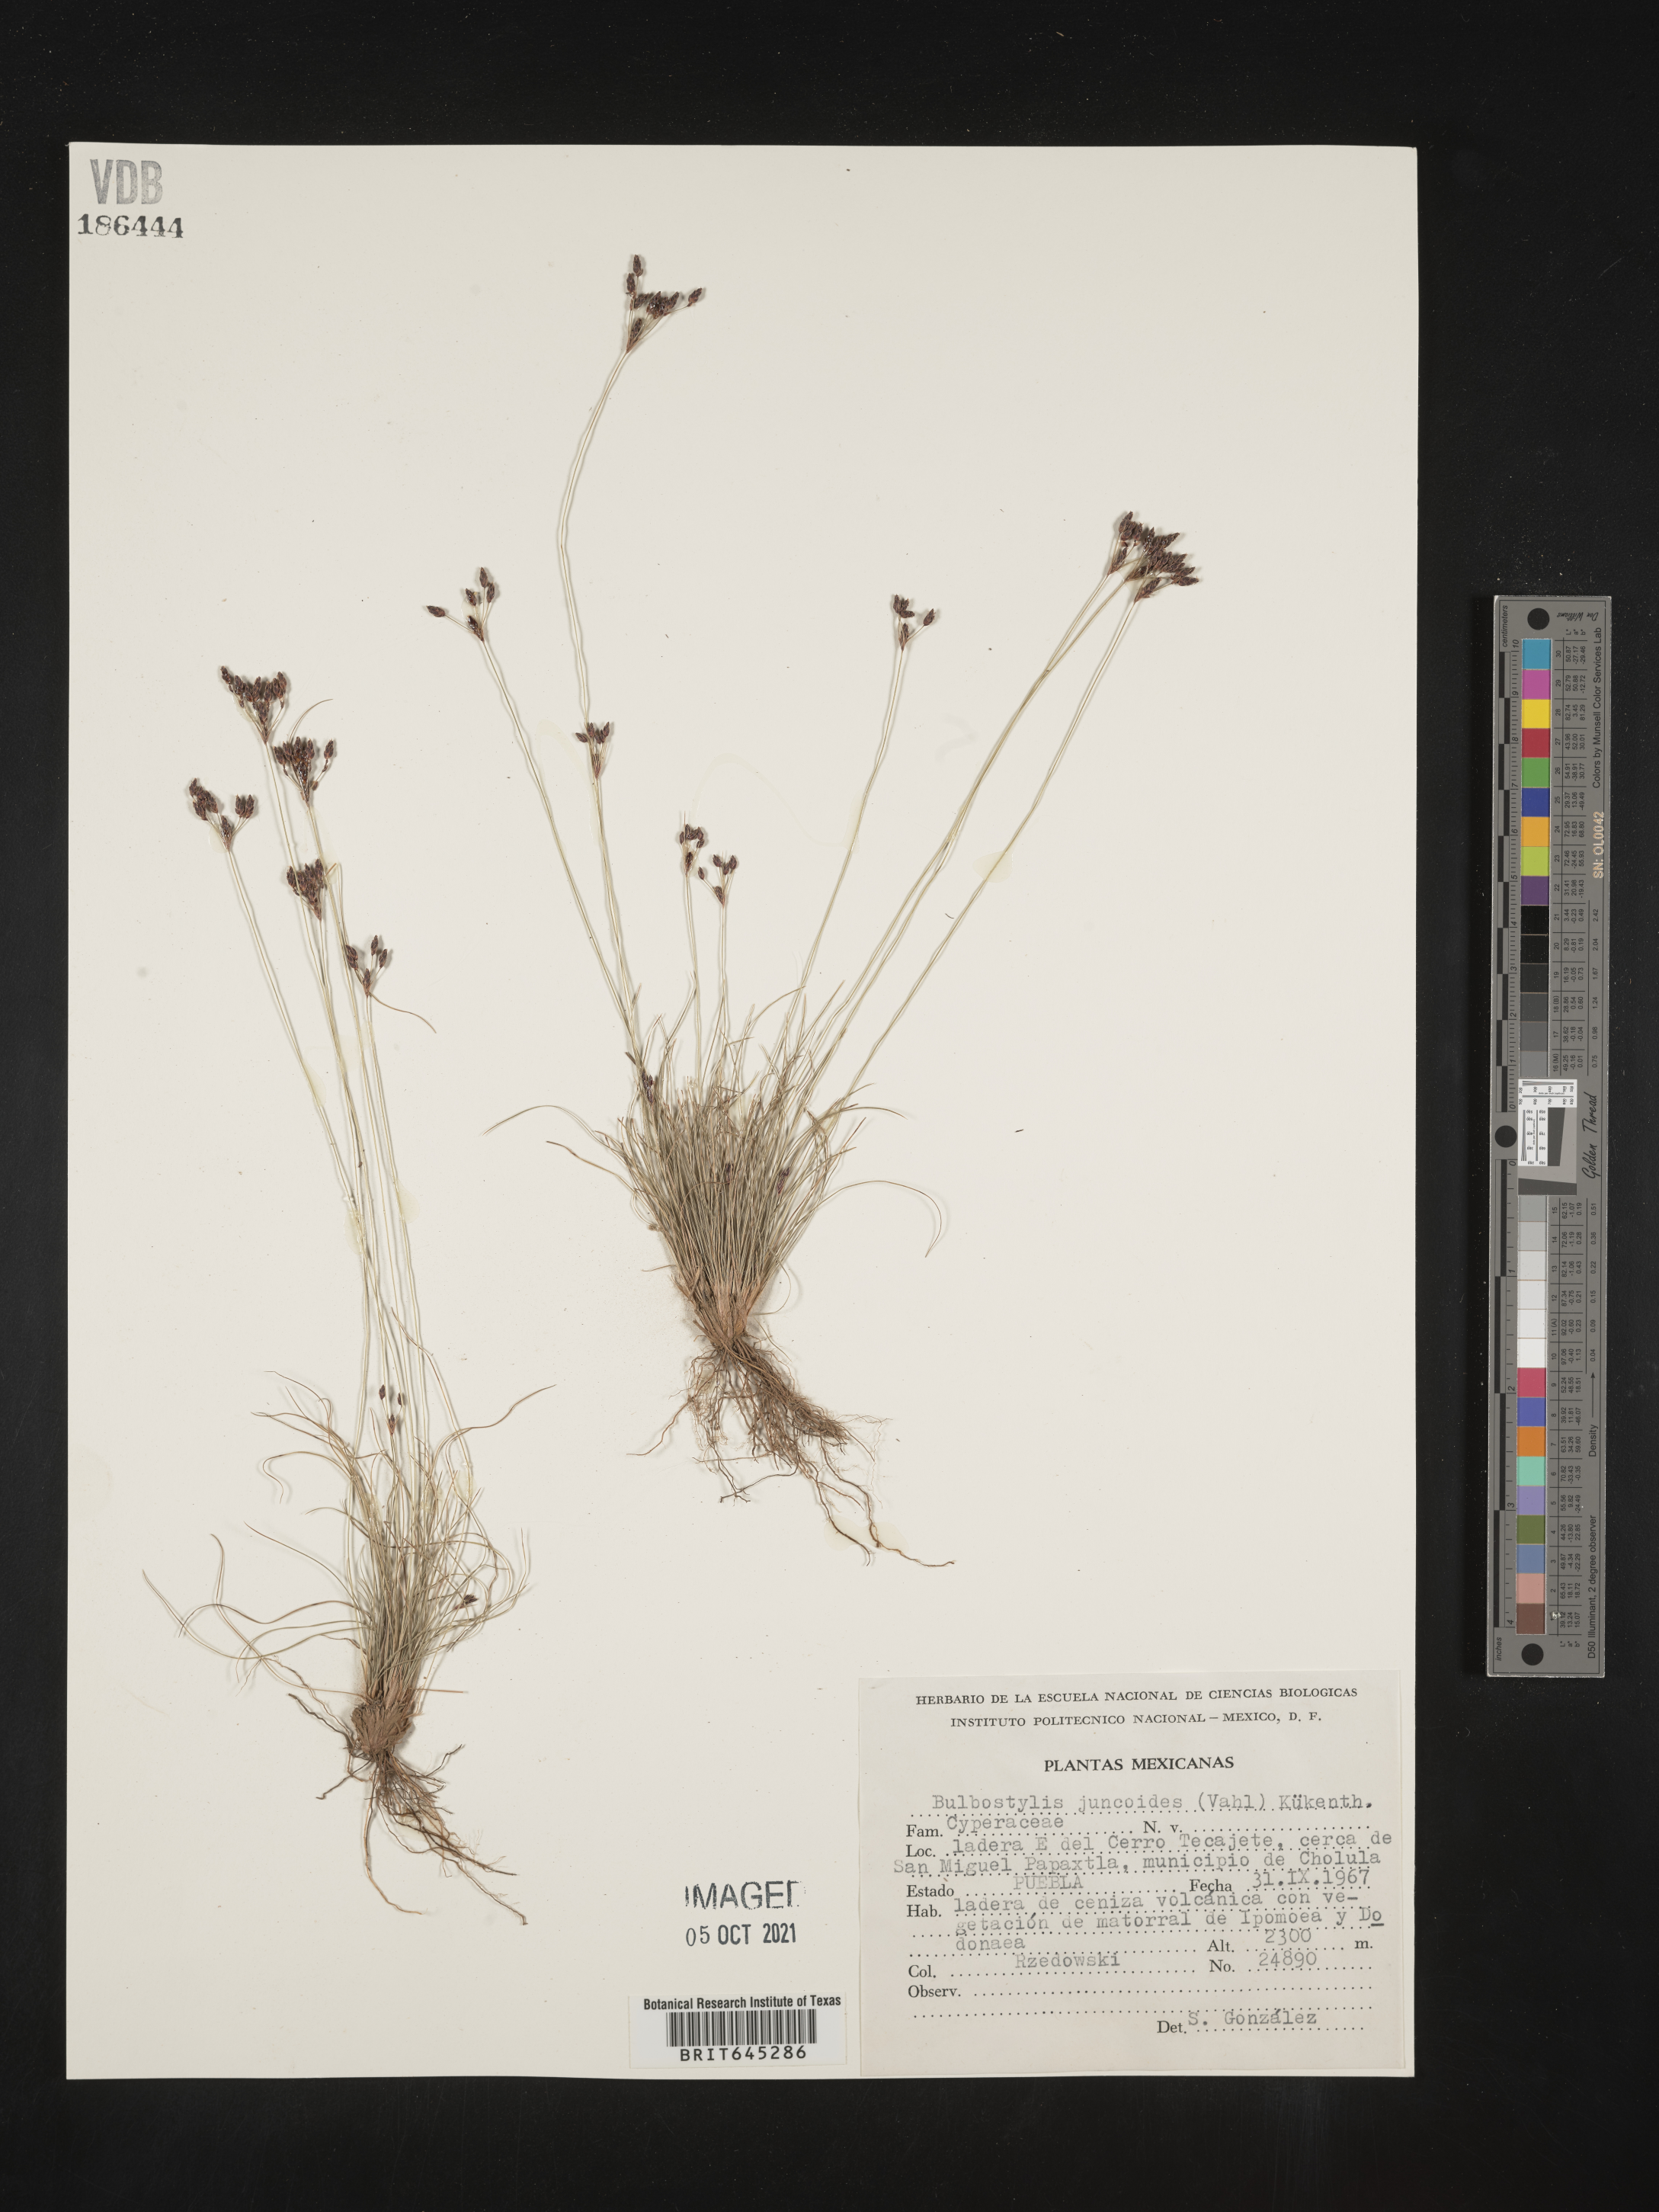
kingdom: Plantae
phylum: Tracheophyta
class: Liliopsida
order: Poales
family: Cyperaceae
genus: Bulbostylis
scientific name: Bulbostylis juncoides
